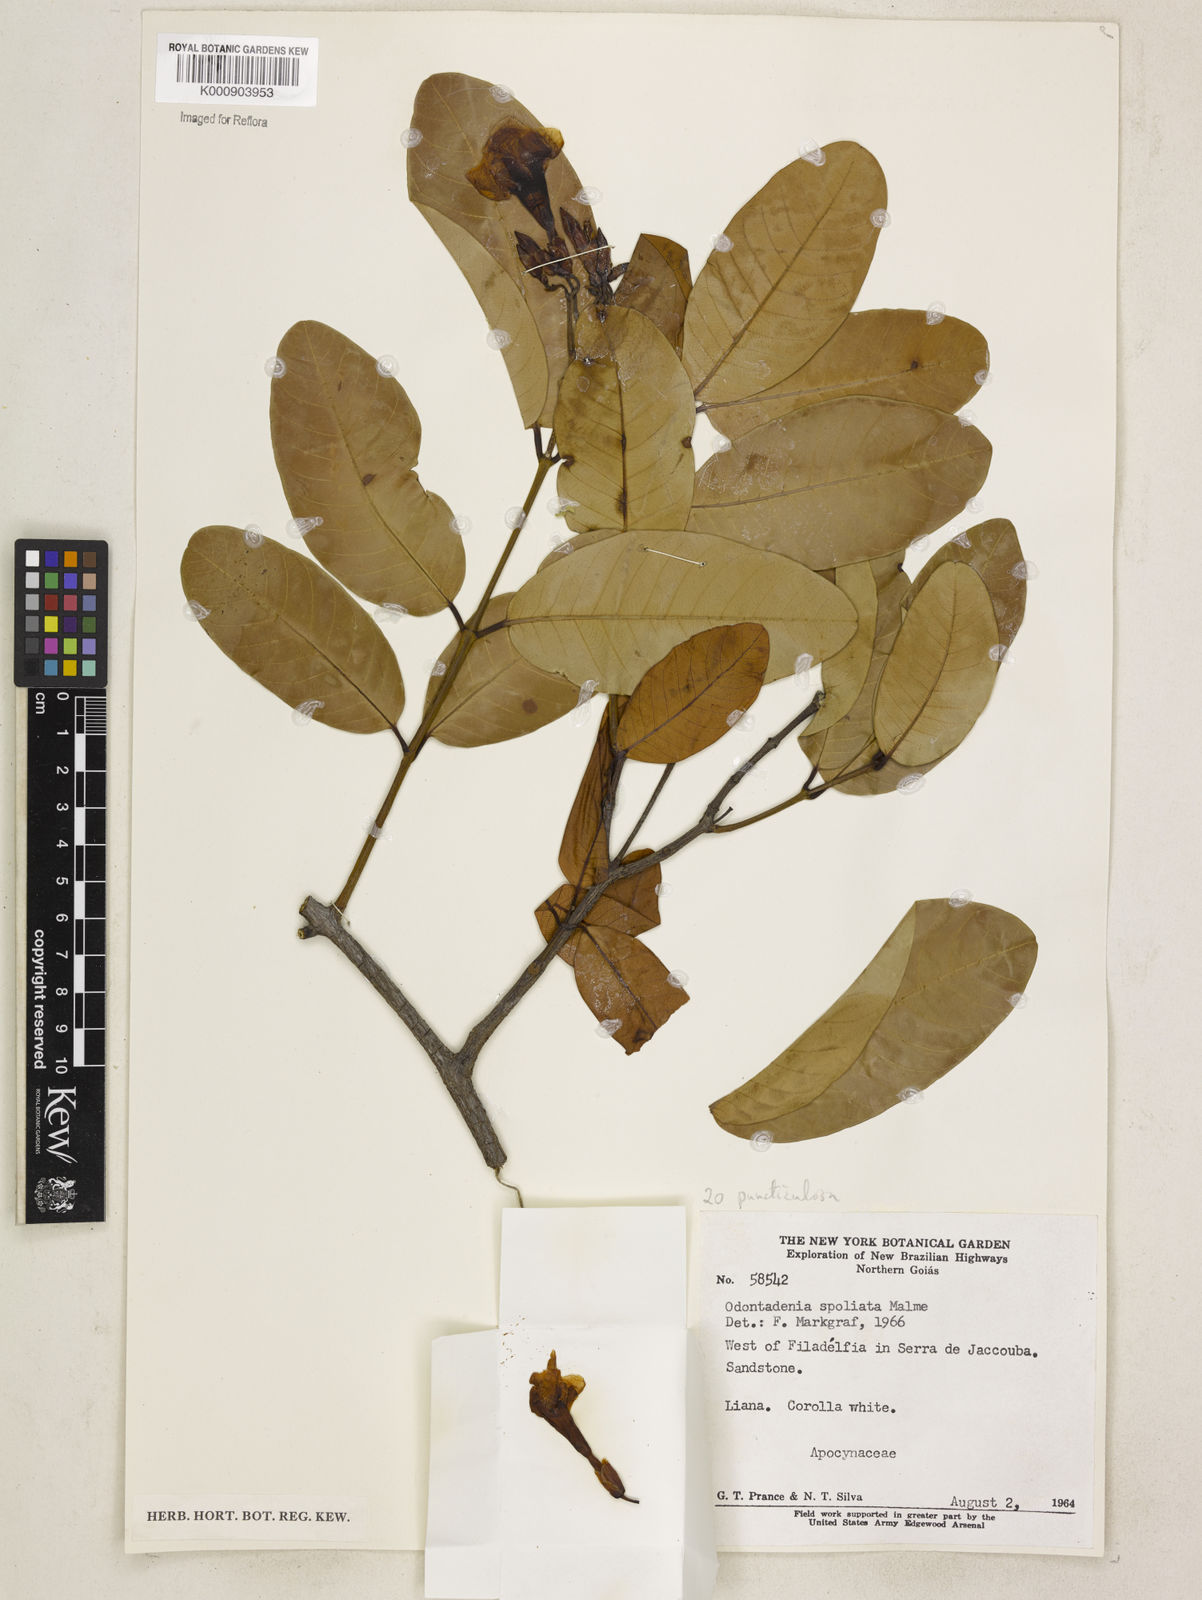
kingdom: Plantae
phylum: Tracheophyta
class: Magnoliopsida
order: Gentianales
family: Apocynaceae
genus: Odontadenia
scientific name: Odontadenia puncticulosa
